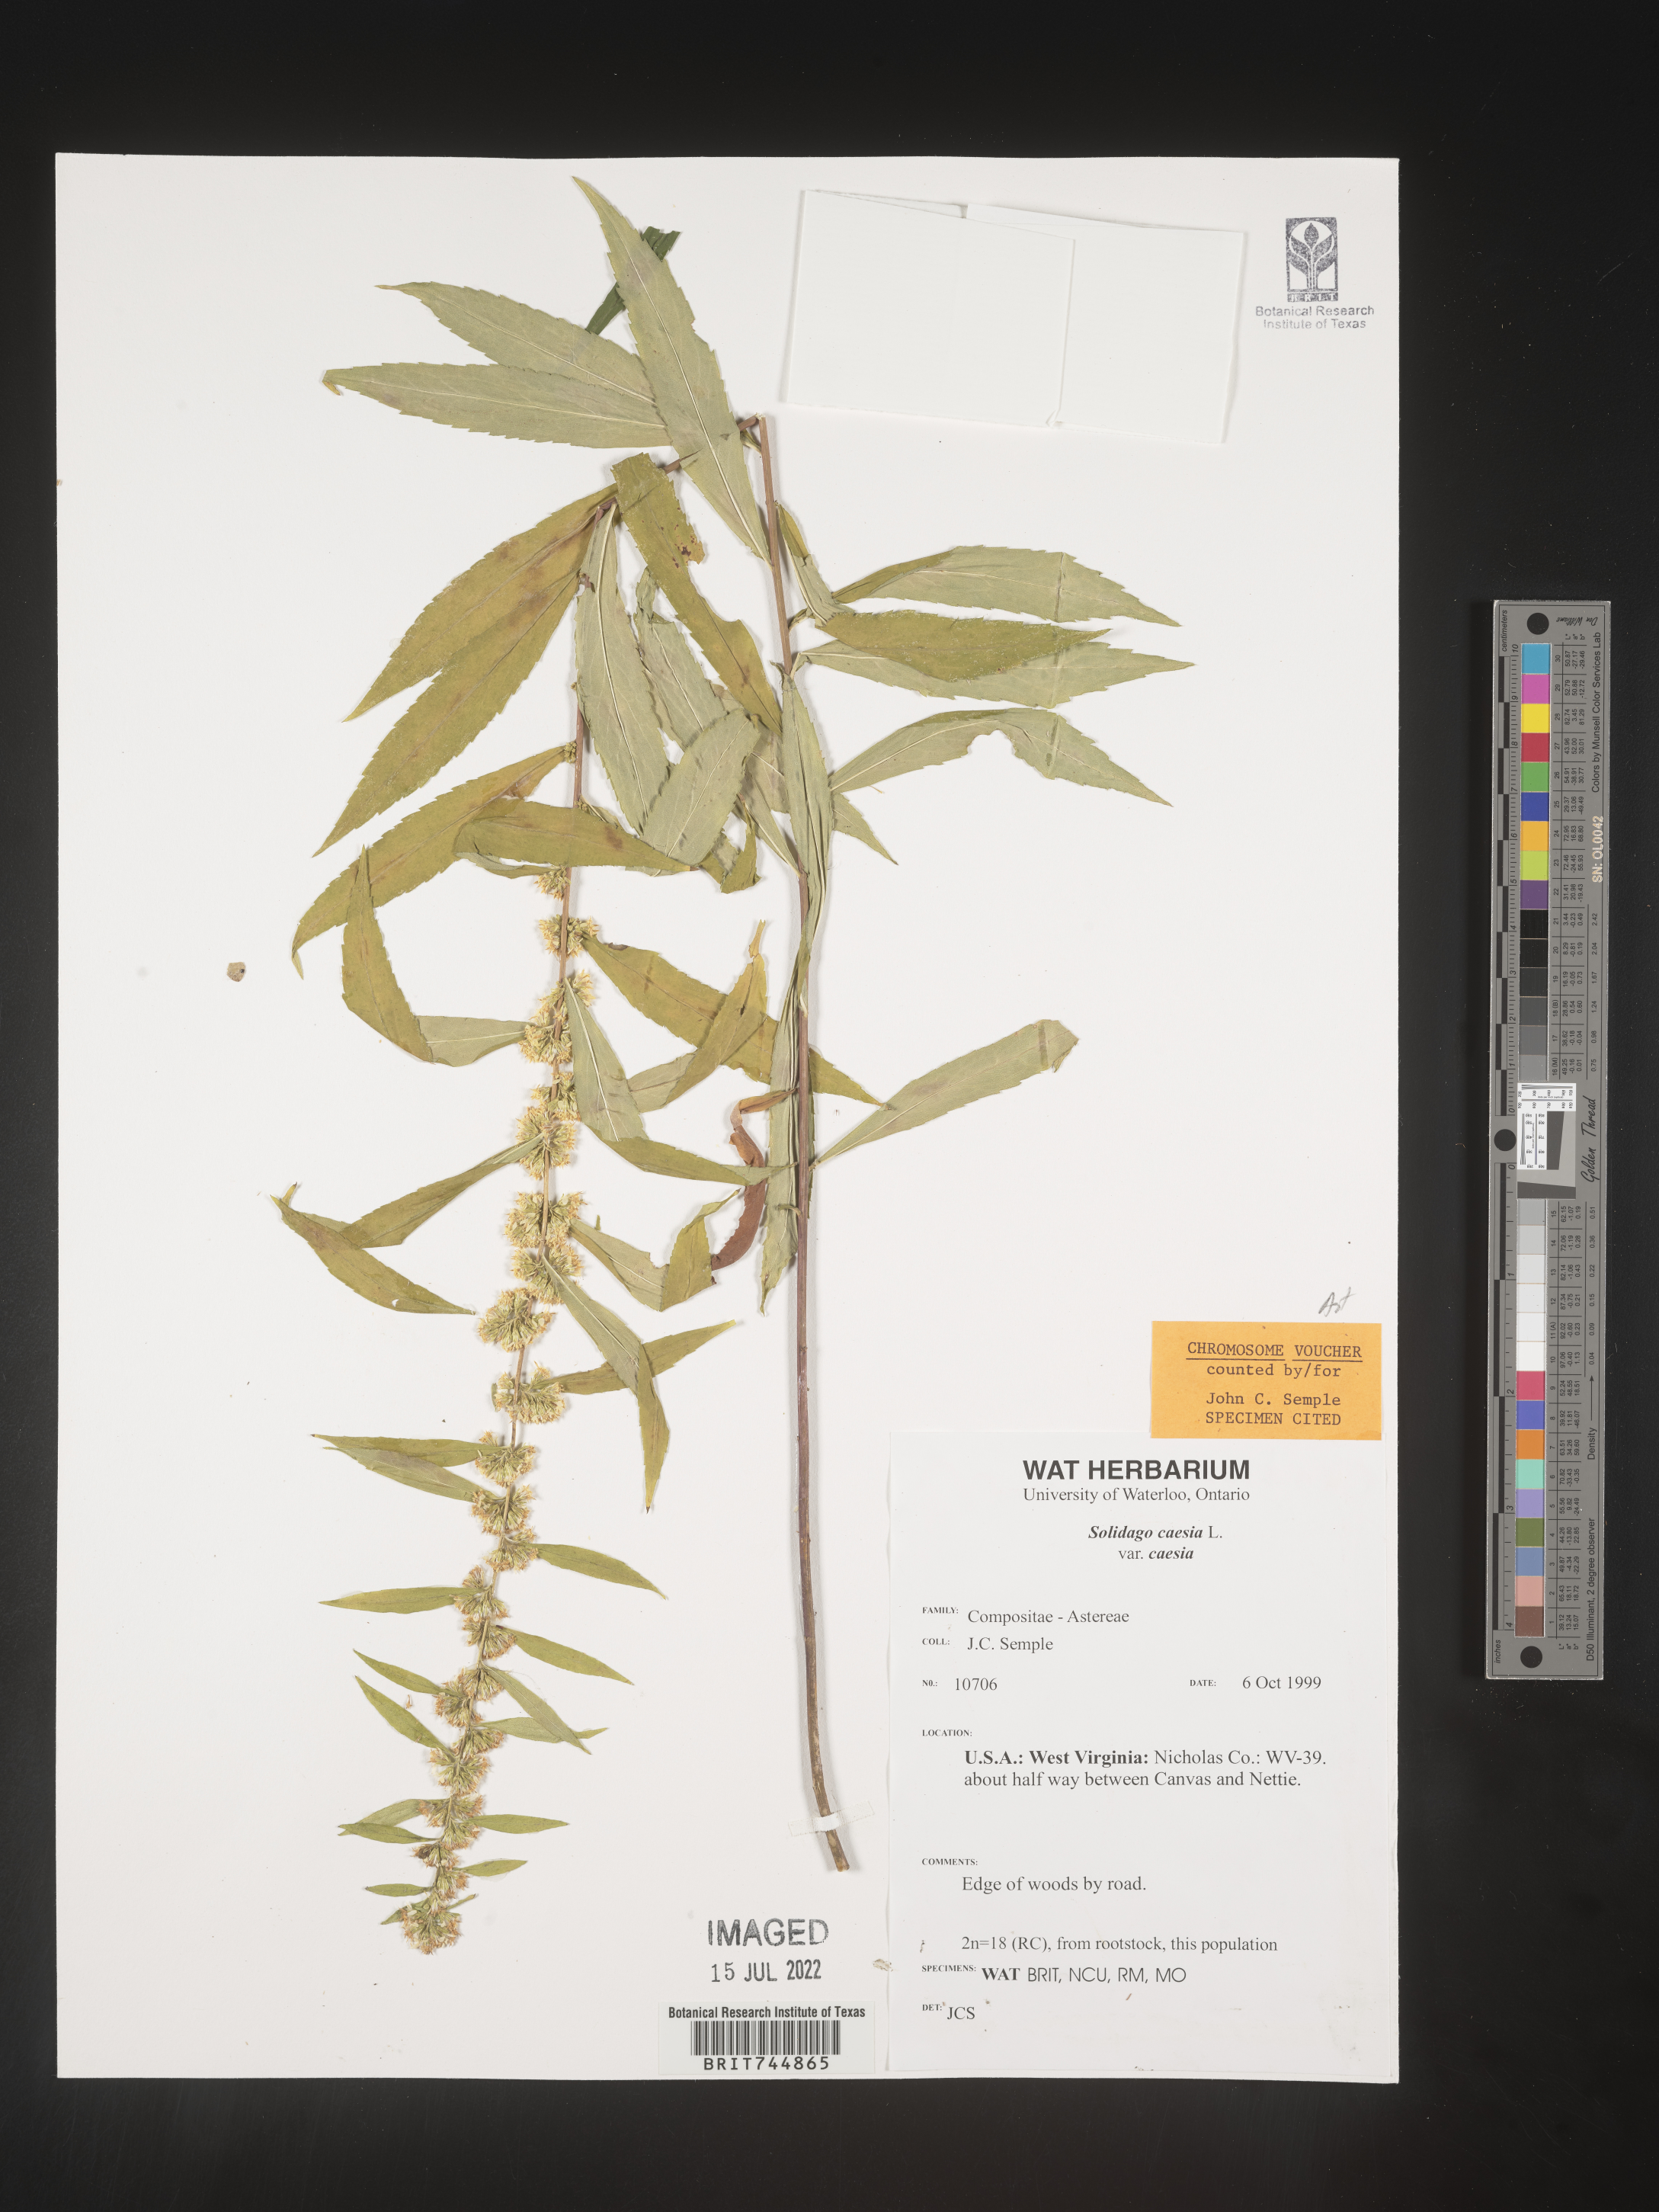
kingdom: Plantae
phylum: Tracheophyta
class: Magnoliopsida
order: Asterales
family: Asteraceae
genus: Solidago
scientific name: Solidago caesia
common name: Woodland goldenrod
